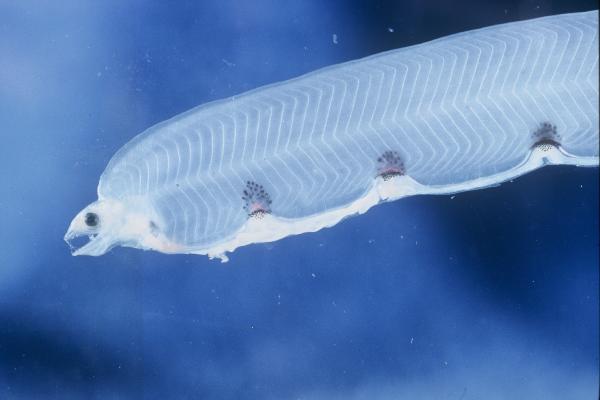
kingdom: Animalia
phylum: Chordata
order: Anguilliformes
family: Ophichthidae
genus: Callechelys
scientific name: Callechelys
